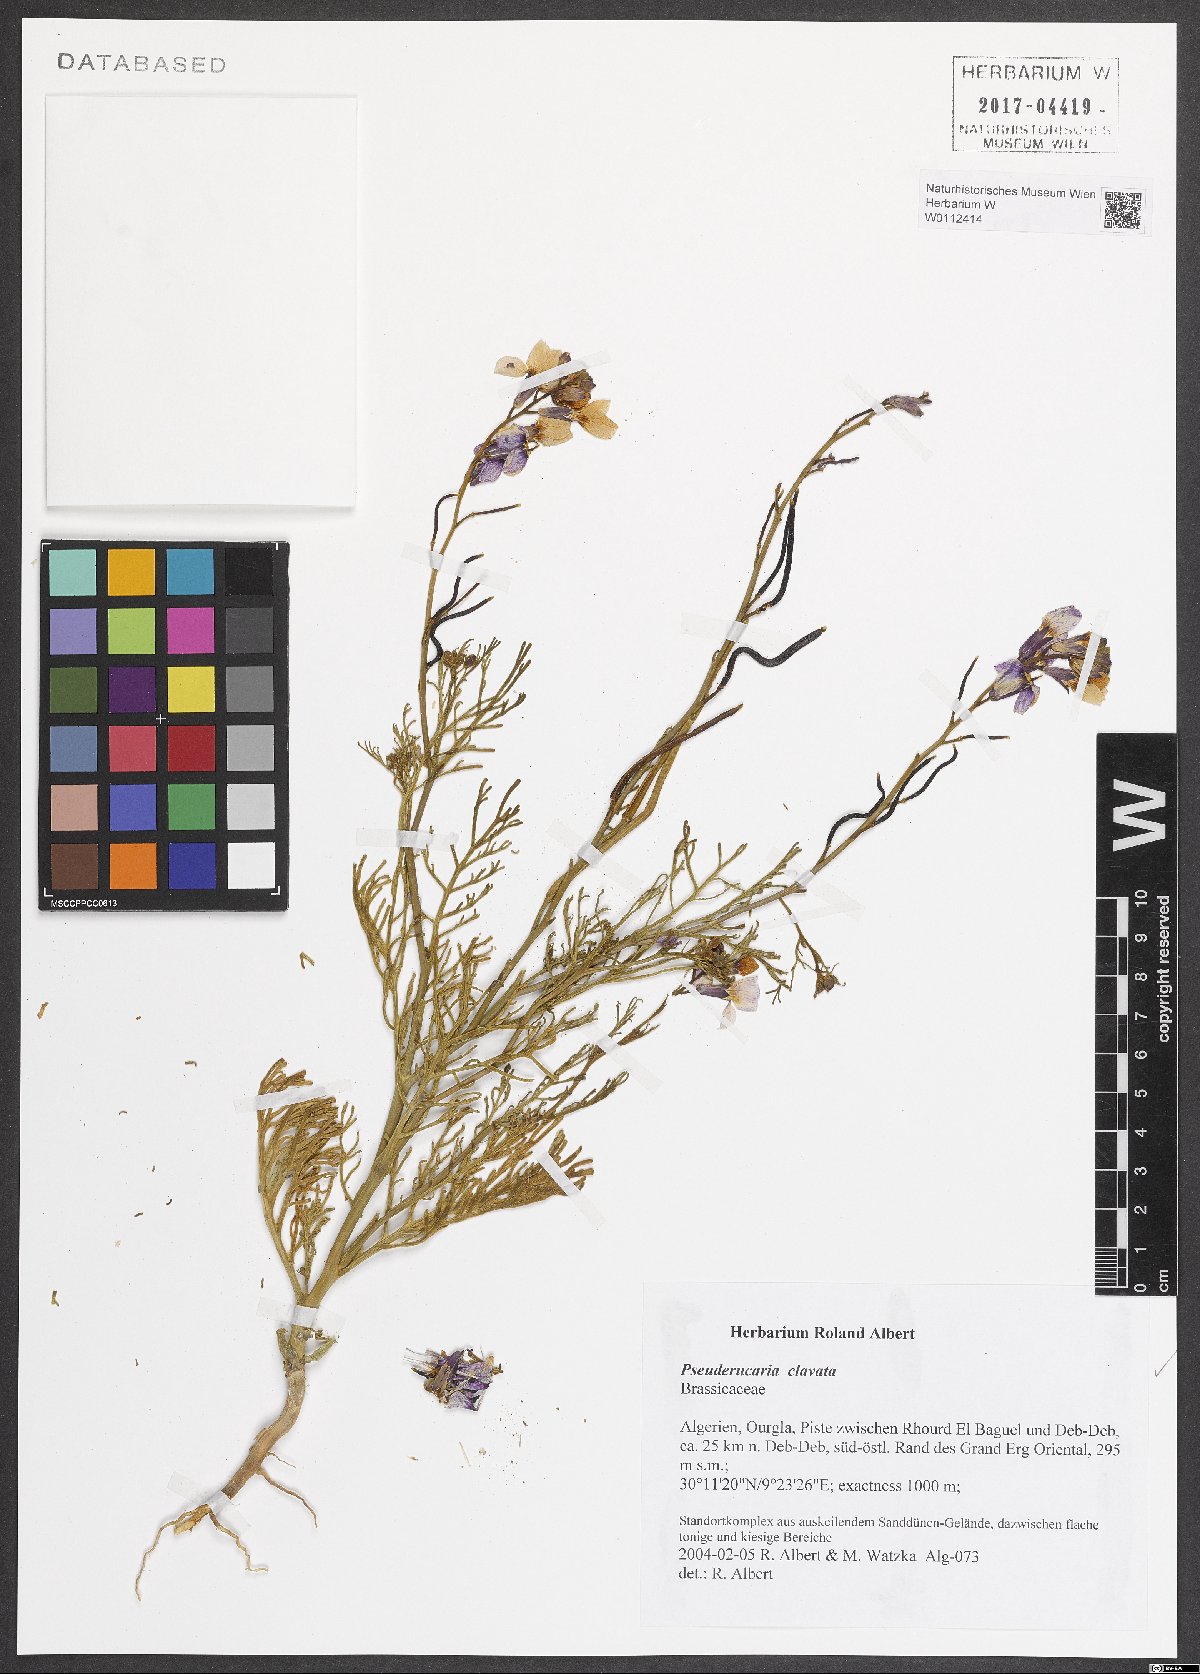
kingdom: Plantae
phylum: Tracheophyta
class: Magnoliopsida
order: Brassicales
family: Brassicaceae
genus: Pseuderucaria
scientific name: Pseuderucaria clavata
